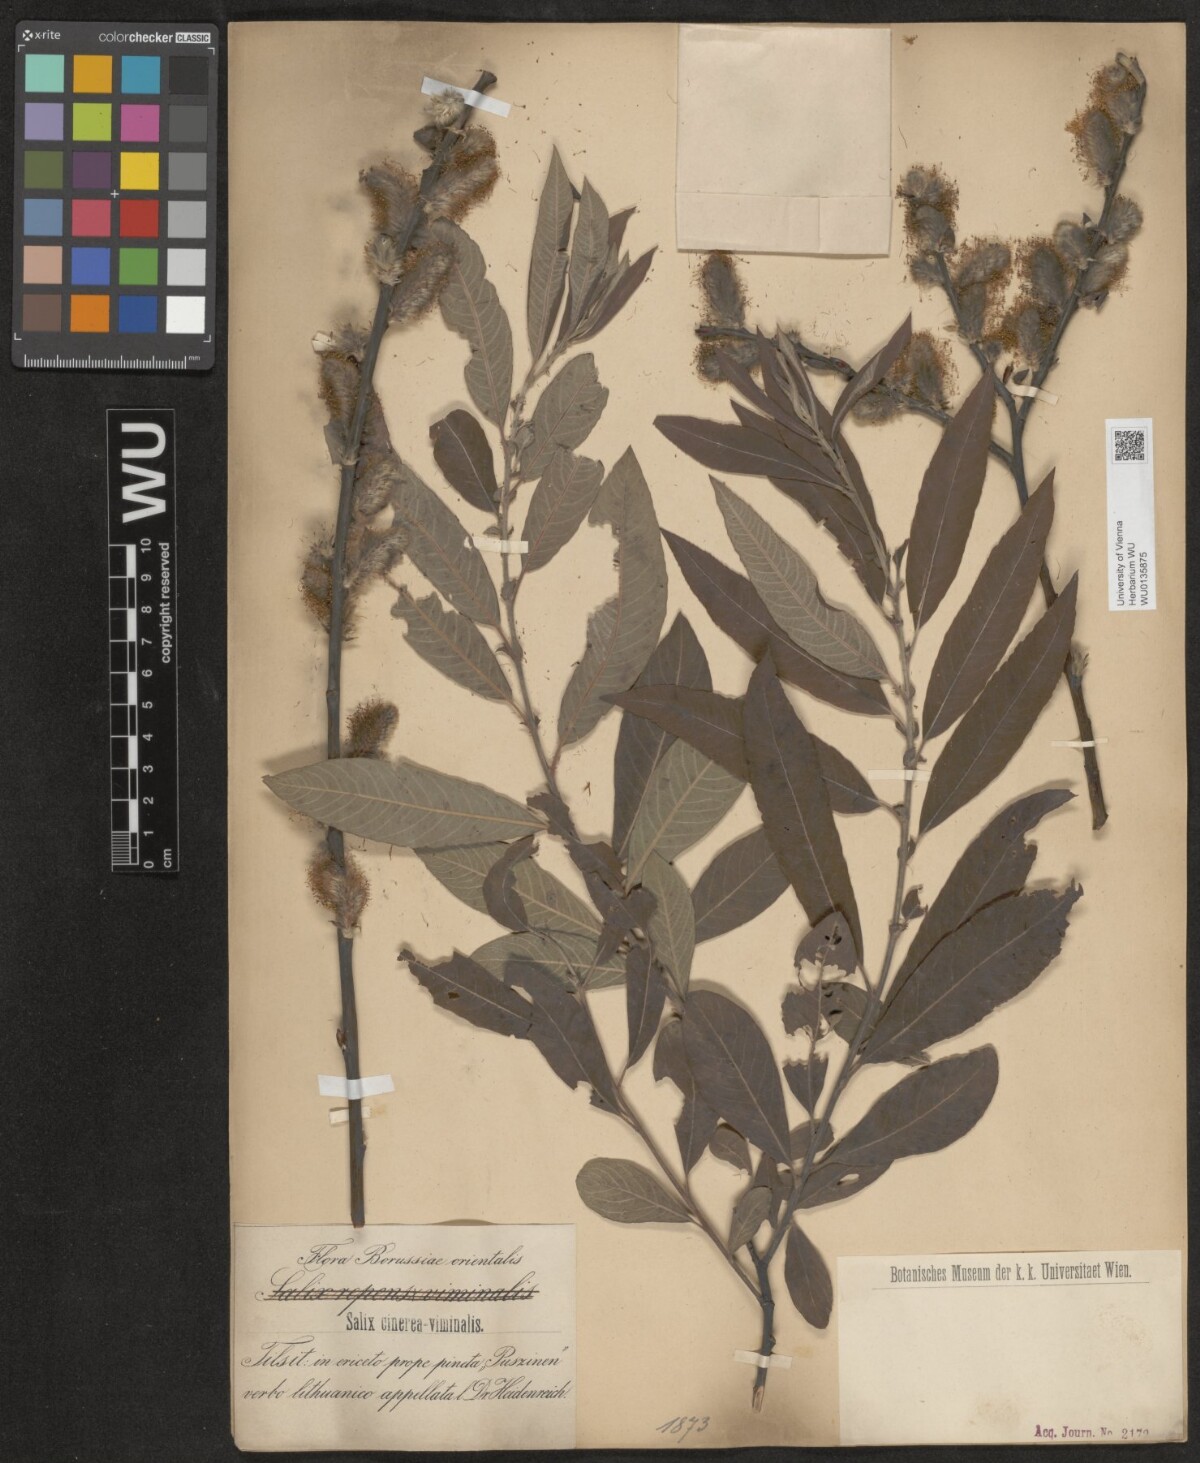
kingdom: Plantae
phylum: Tracheophyta
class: Magnoliopsida
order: Malpighiales
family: Salicaceae
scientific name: Salicaceae
